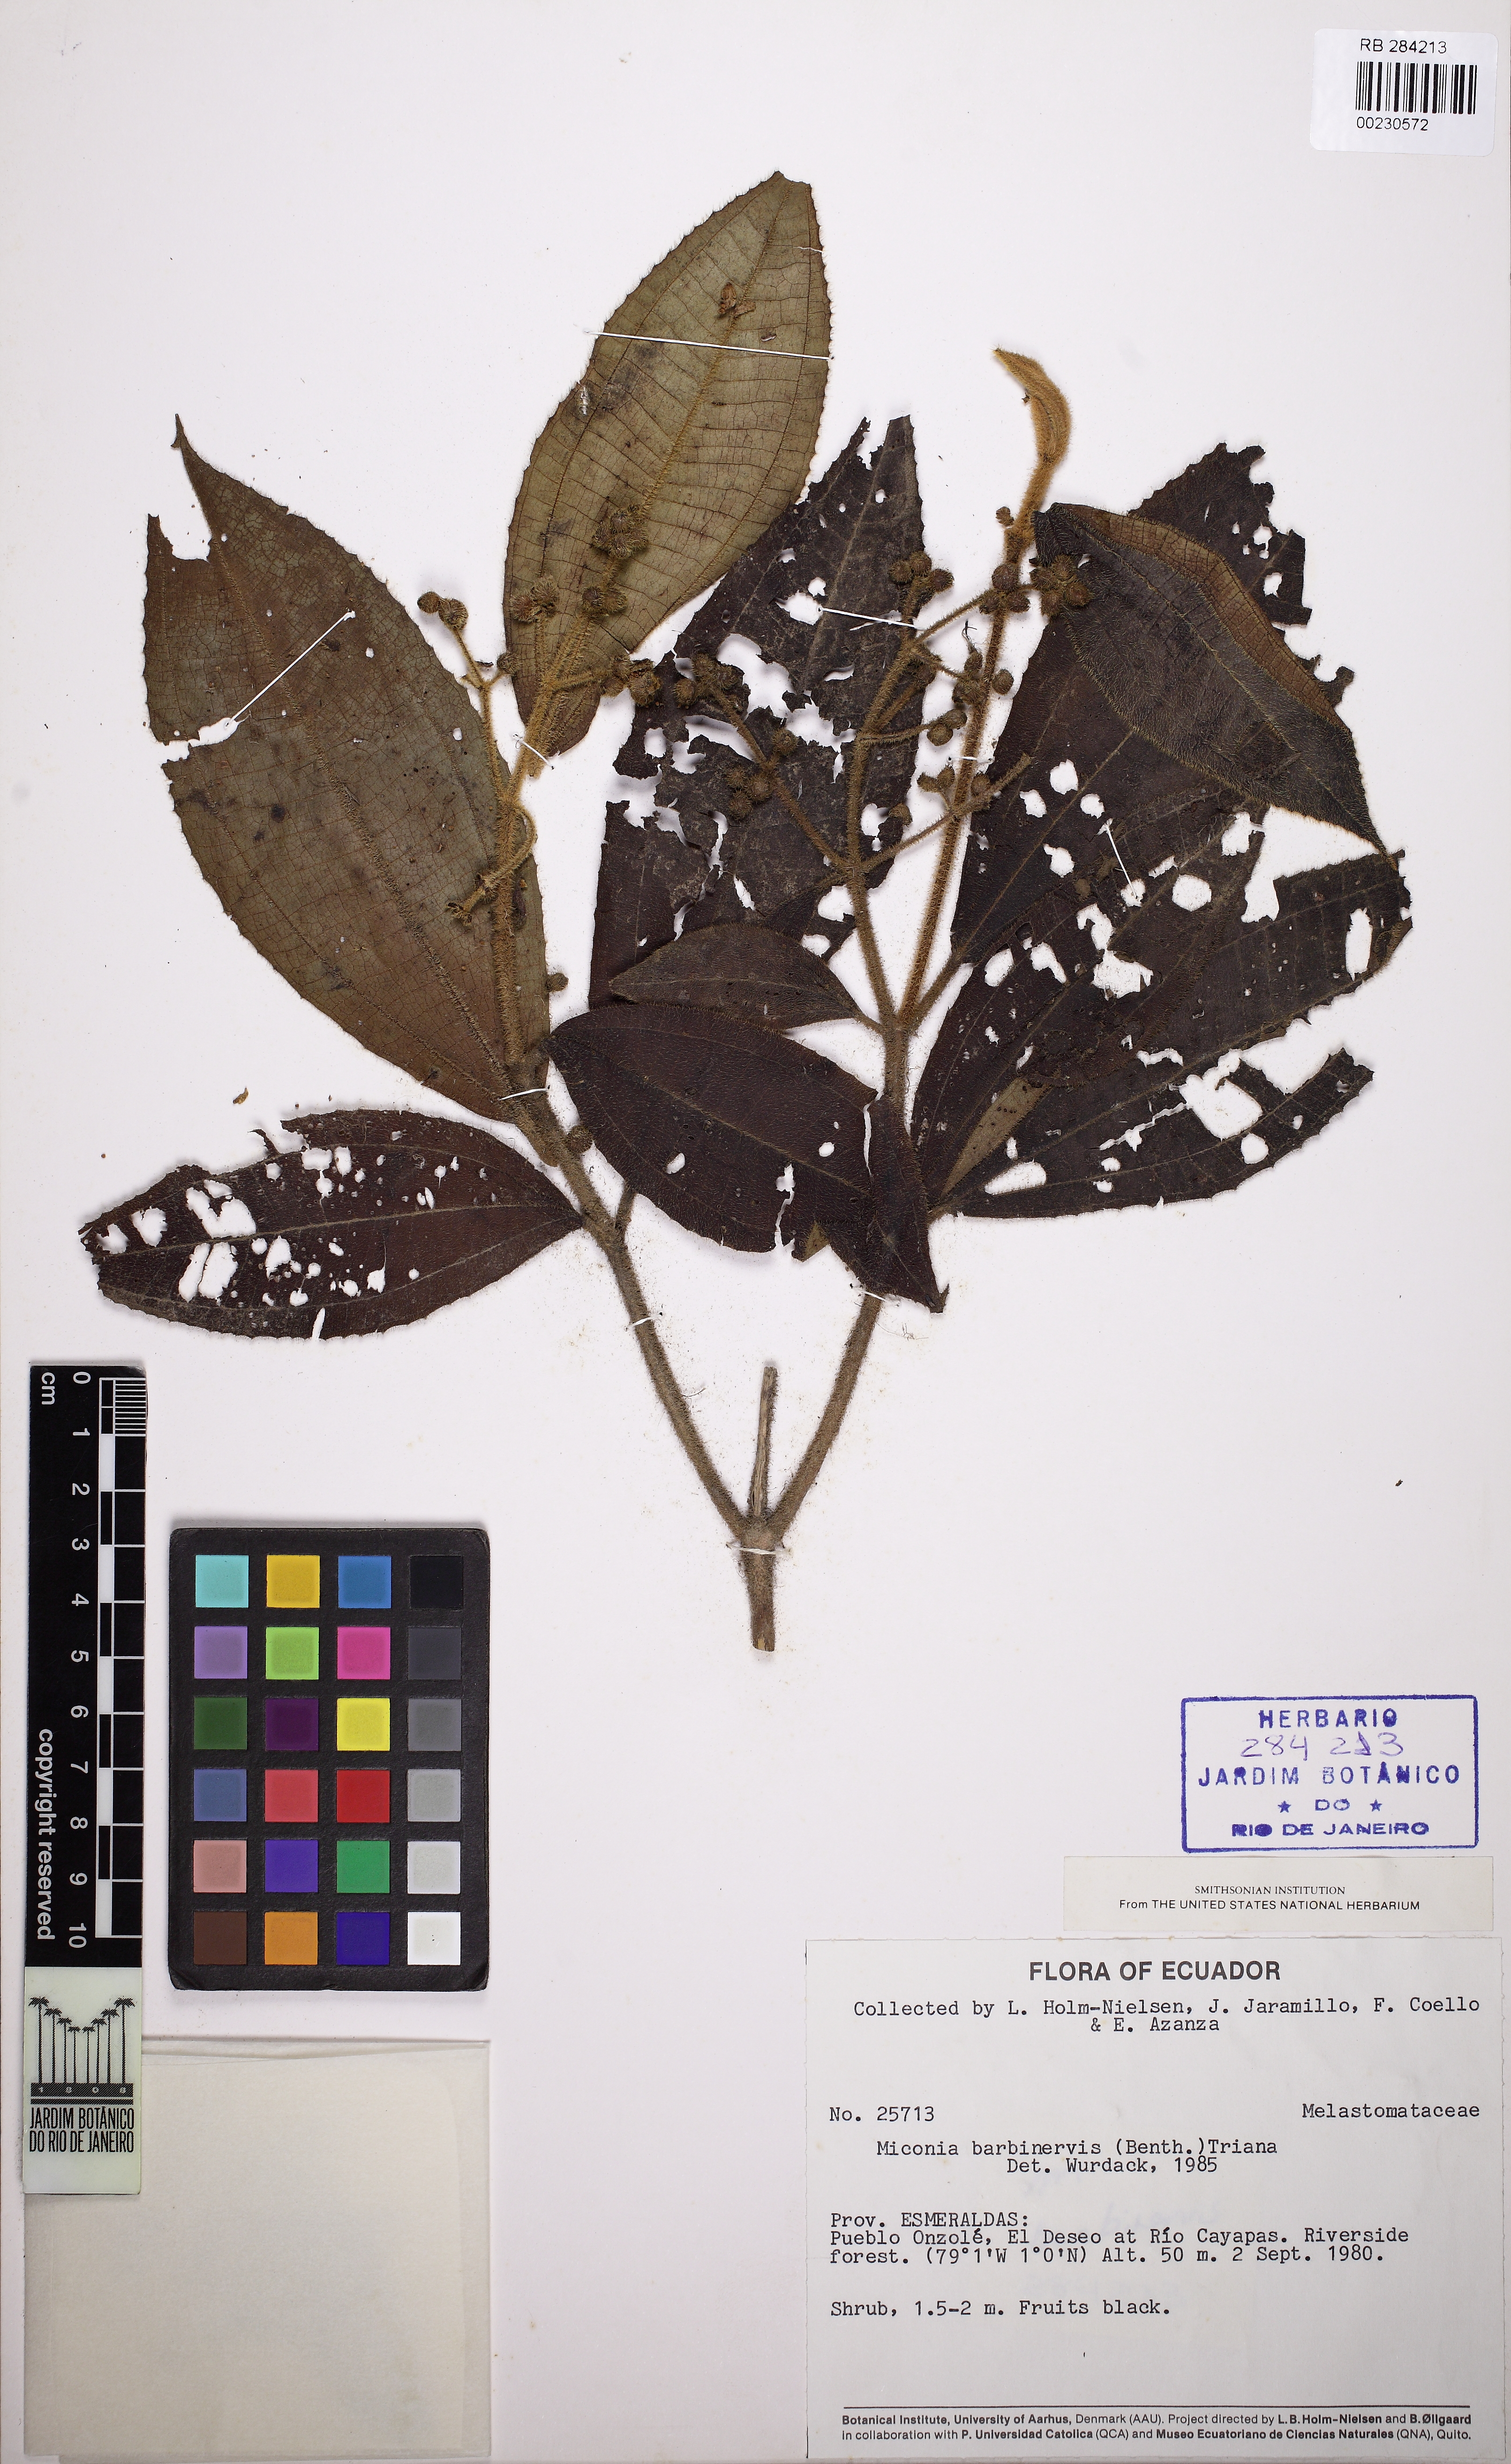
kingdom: Plantae
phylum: Tracheophyta
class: Magnoliopsida
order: Myrtales
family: Melastomataceae
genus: Miconia
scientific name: Miconia barbinervis
